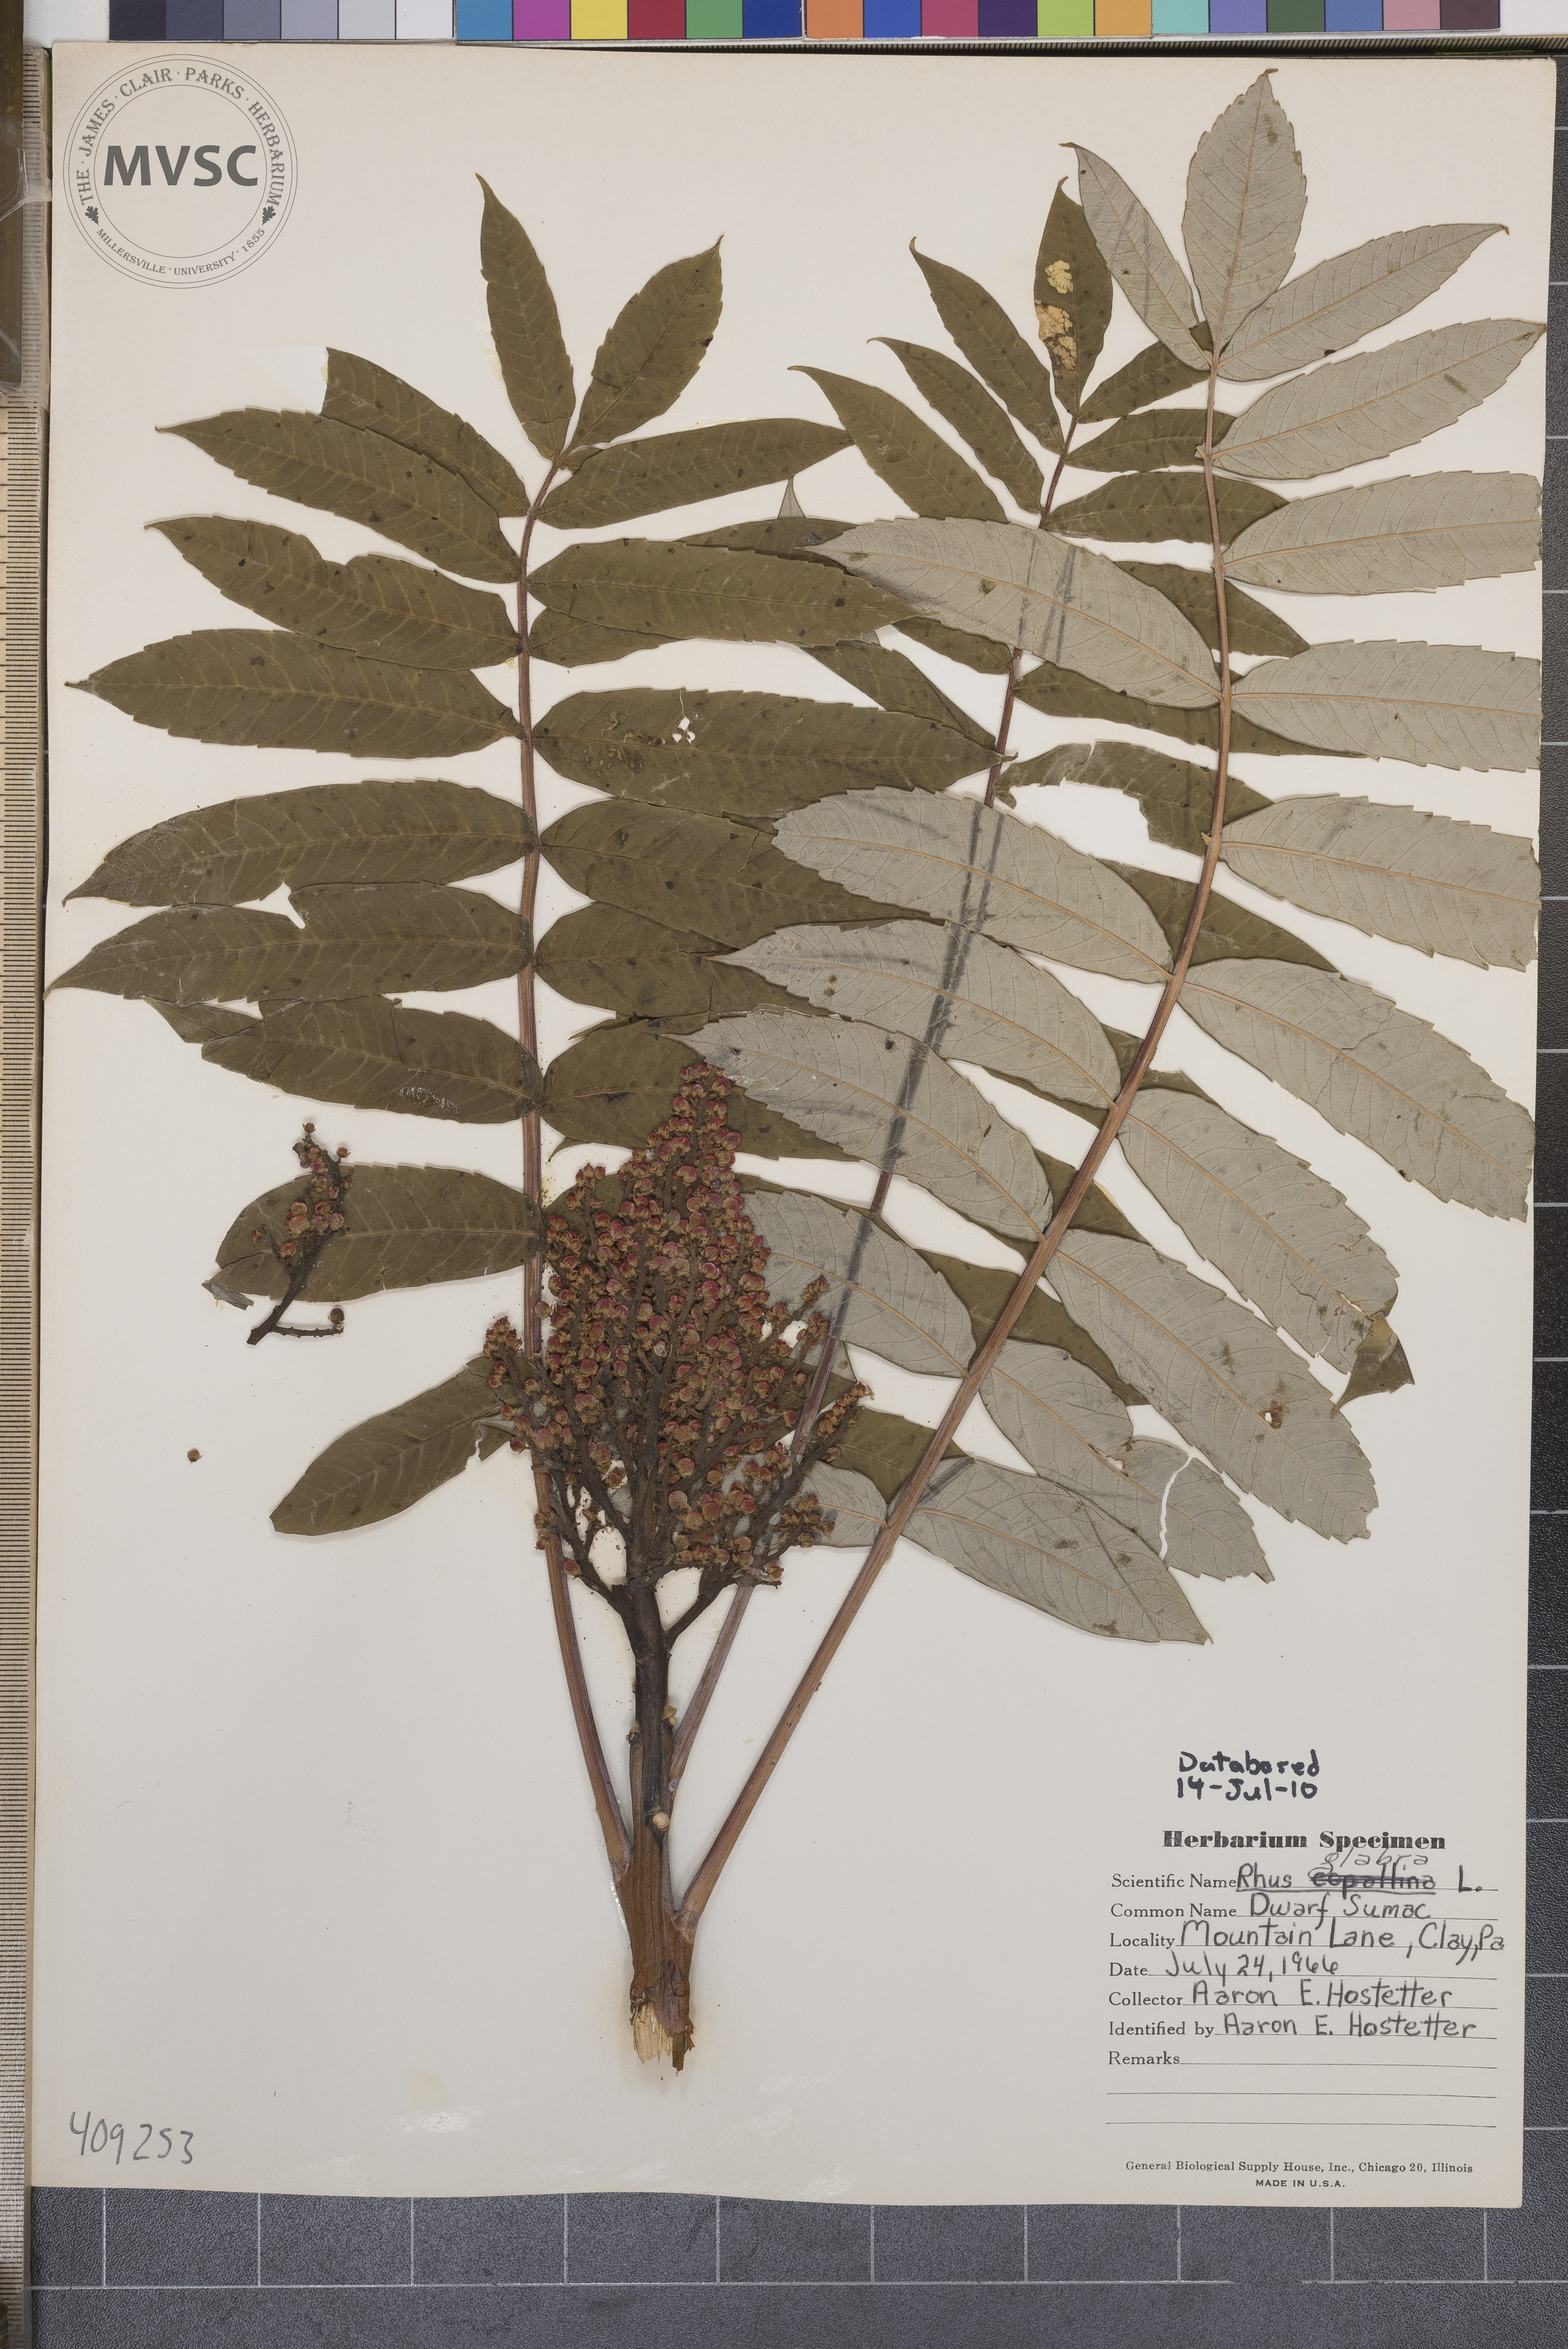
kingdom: Plantae
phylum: Tracheophyta
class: Magnoliopsida
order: Sapindales
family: Anacardiaceae
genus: Rhus
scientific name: Rhus glabra
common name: Scarlet sumac
